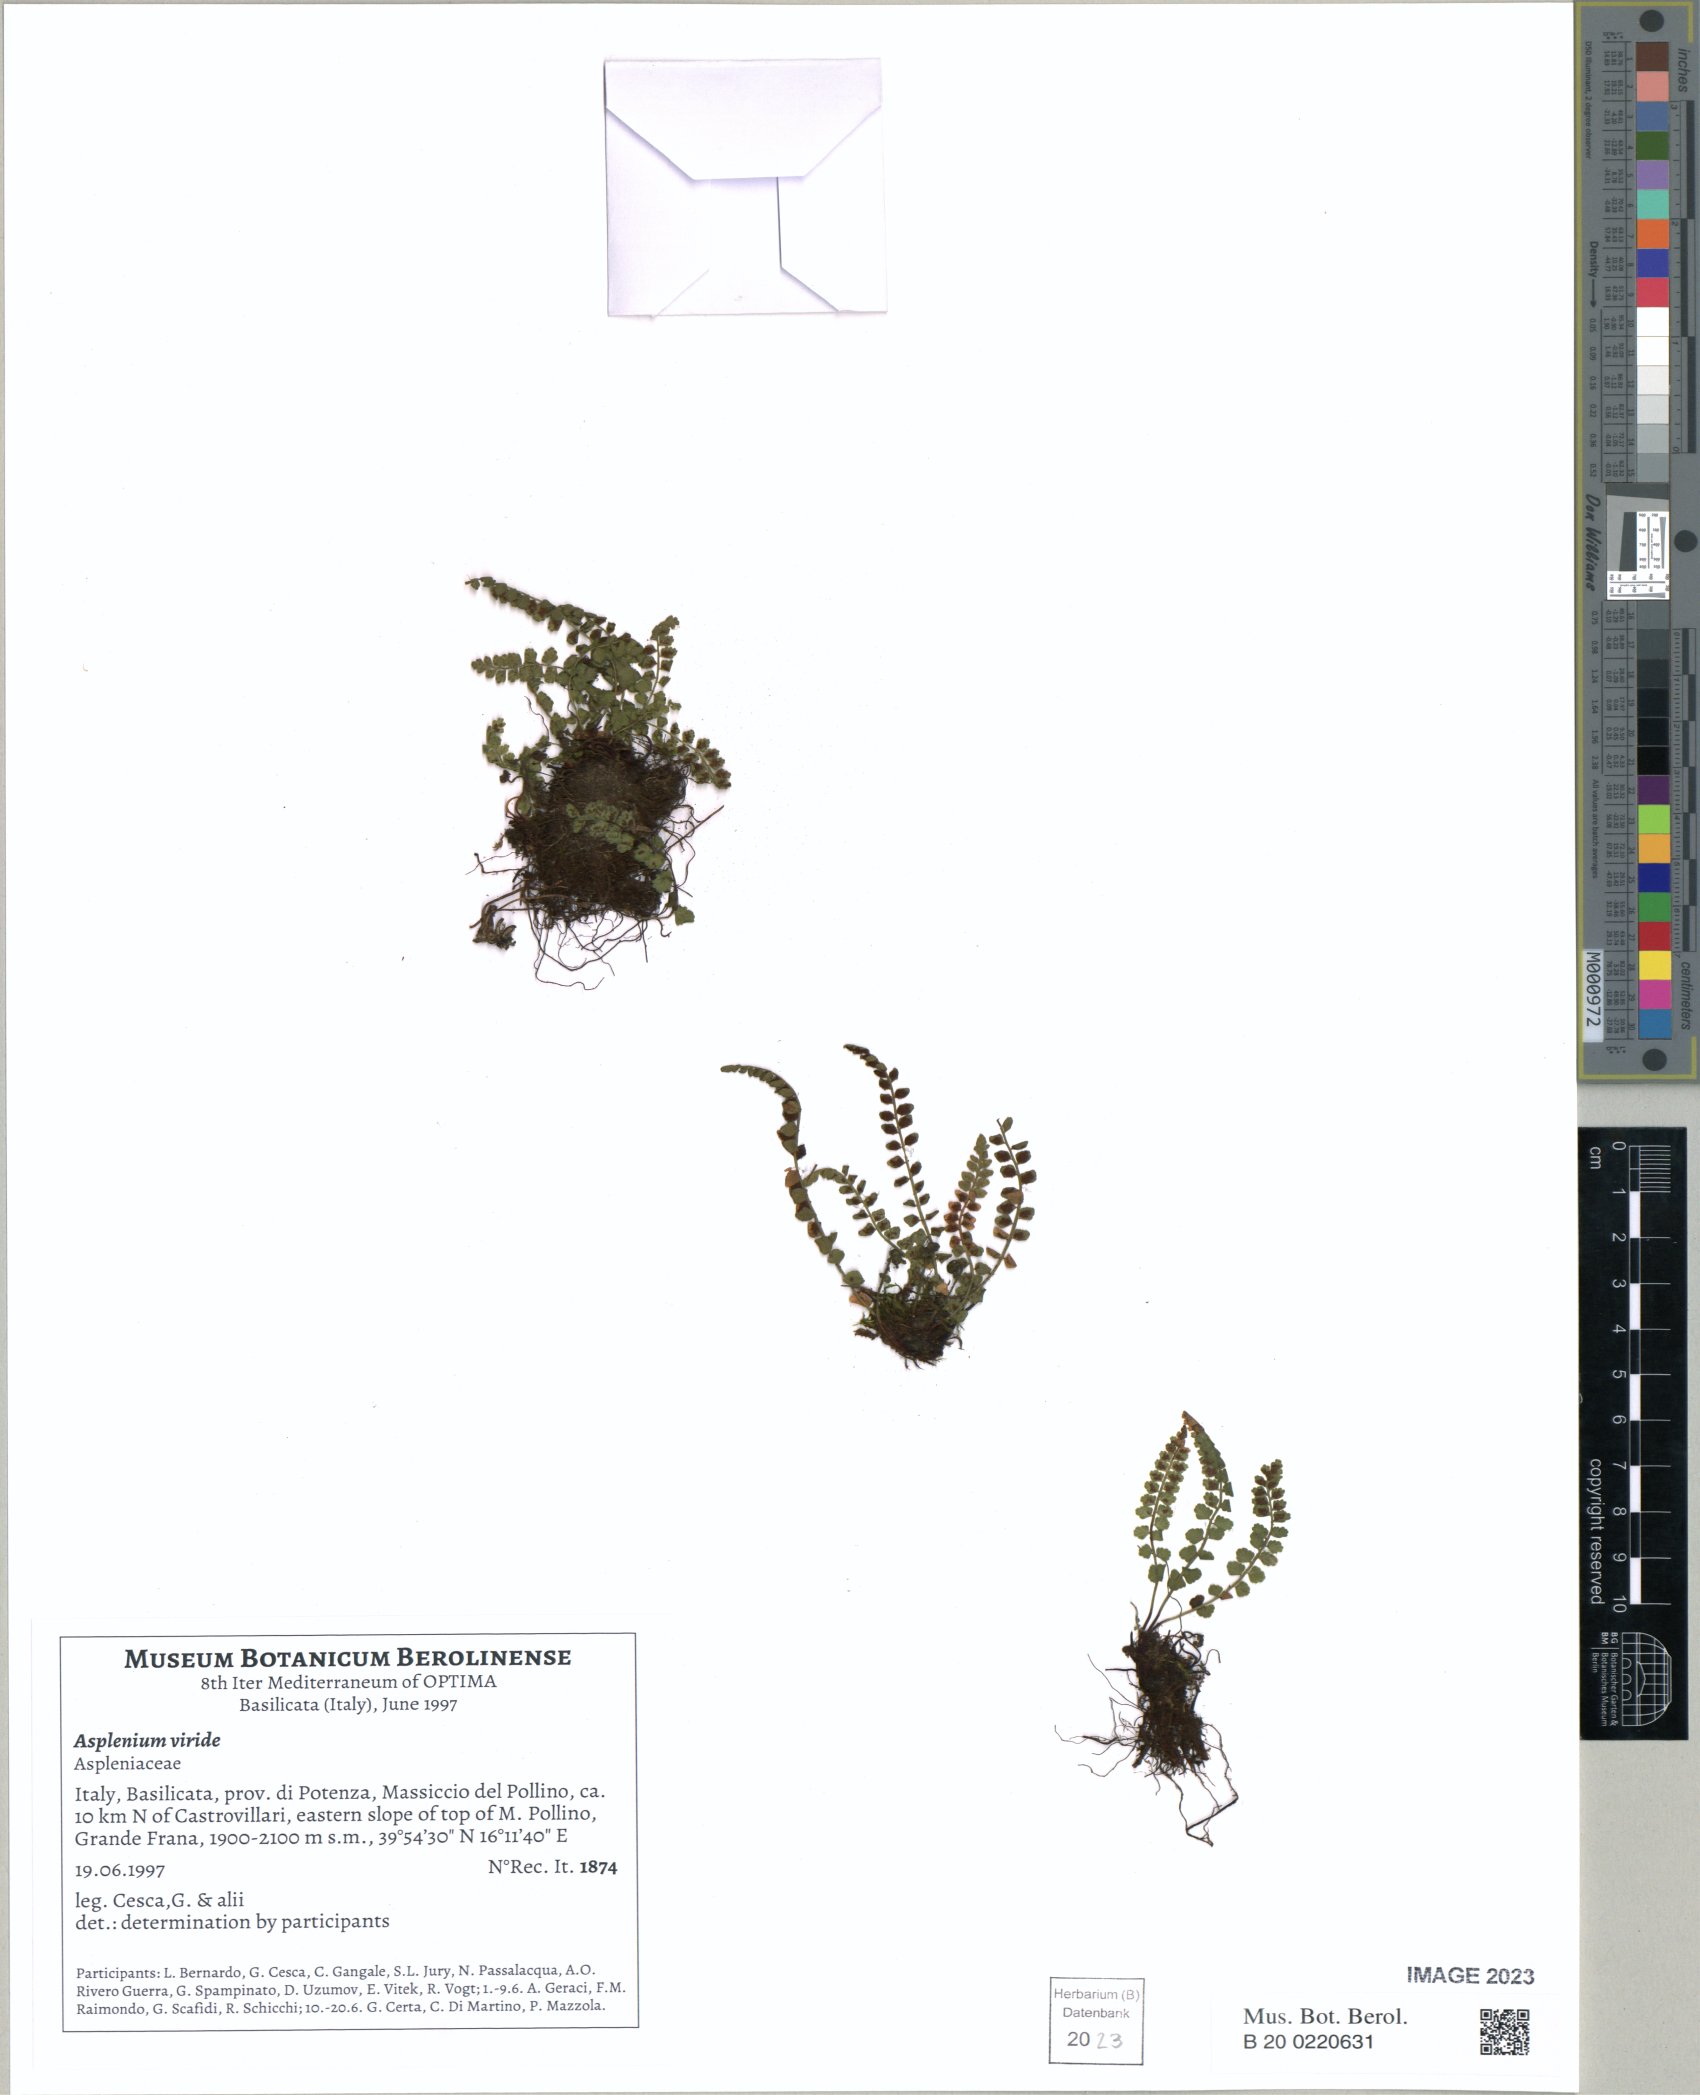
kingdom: Plantae
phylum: Tracheophyta
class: Polypodiopsida
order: Polypodiales
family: Aspleniaceae
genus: Asplenium
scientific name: Asplenium viride
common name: Green spleenwort
